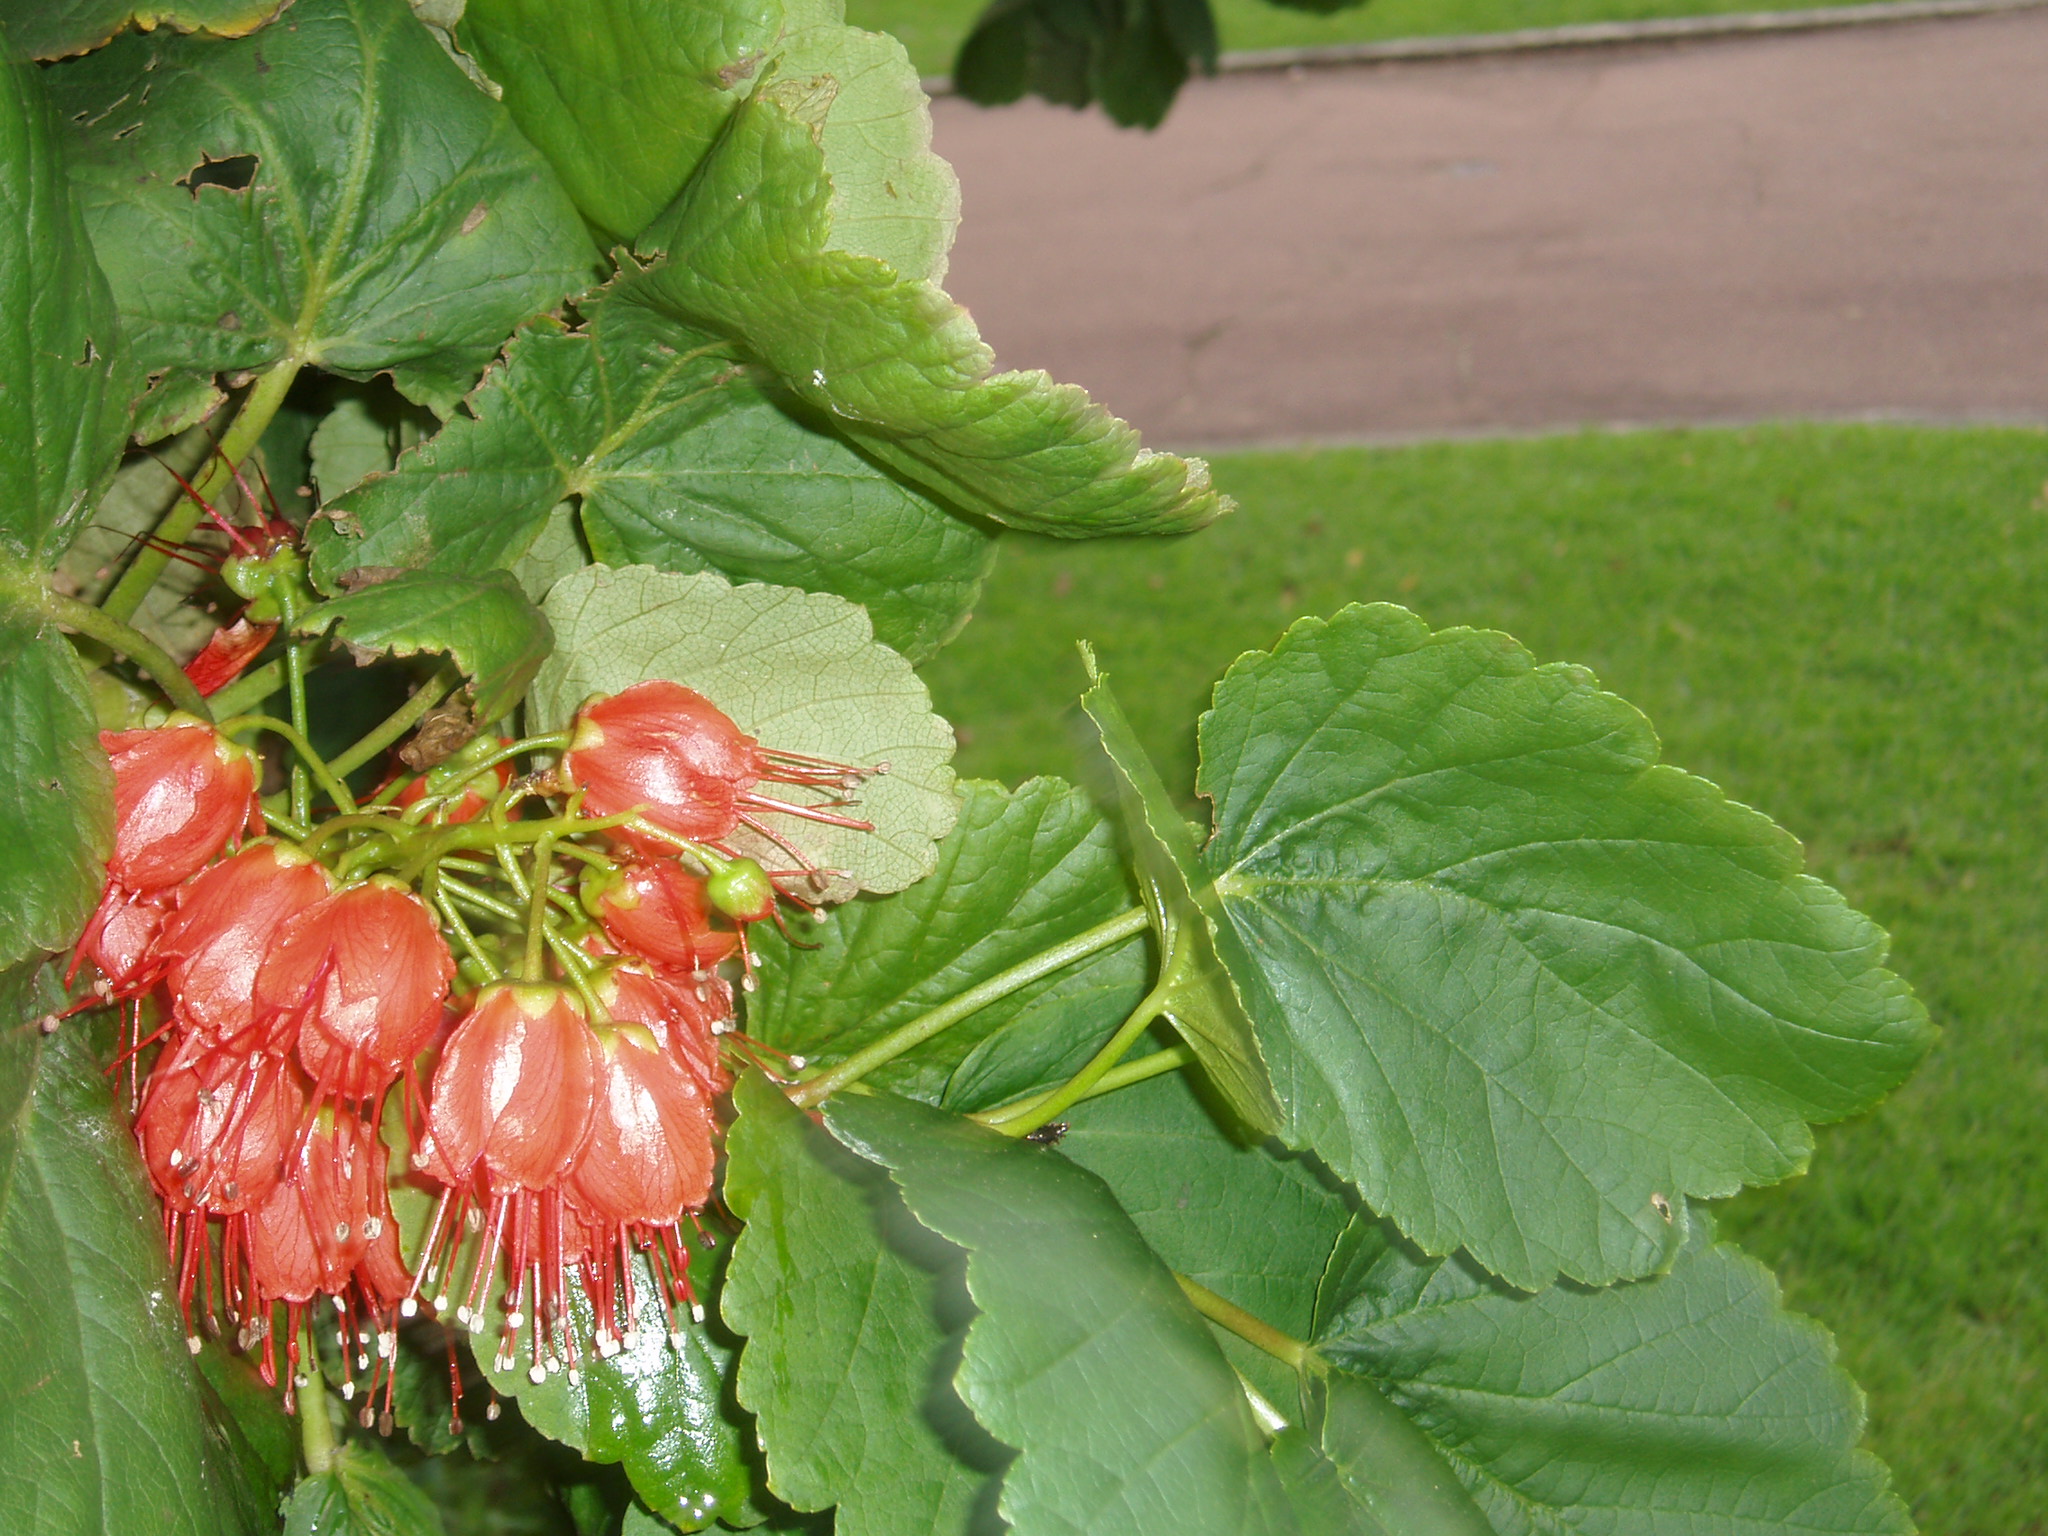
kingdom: Plantae
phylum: Tracheophyta
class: Magnoliopsida
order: Geraniales
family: Francoaceae
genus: Greyia
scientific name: Greyia sutherlandii
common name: Glossy bottlebrush
